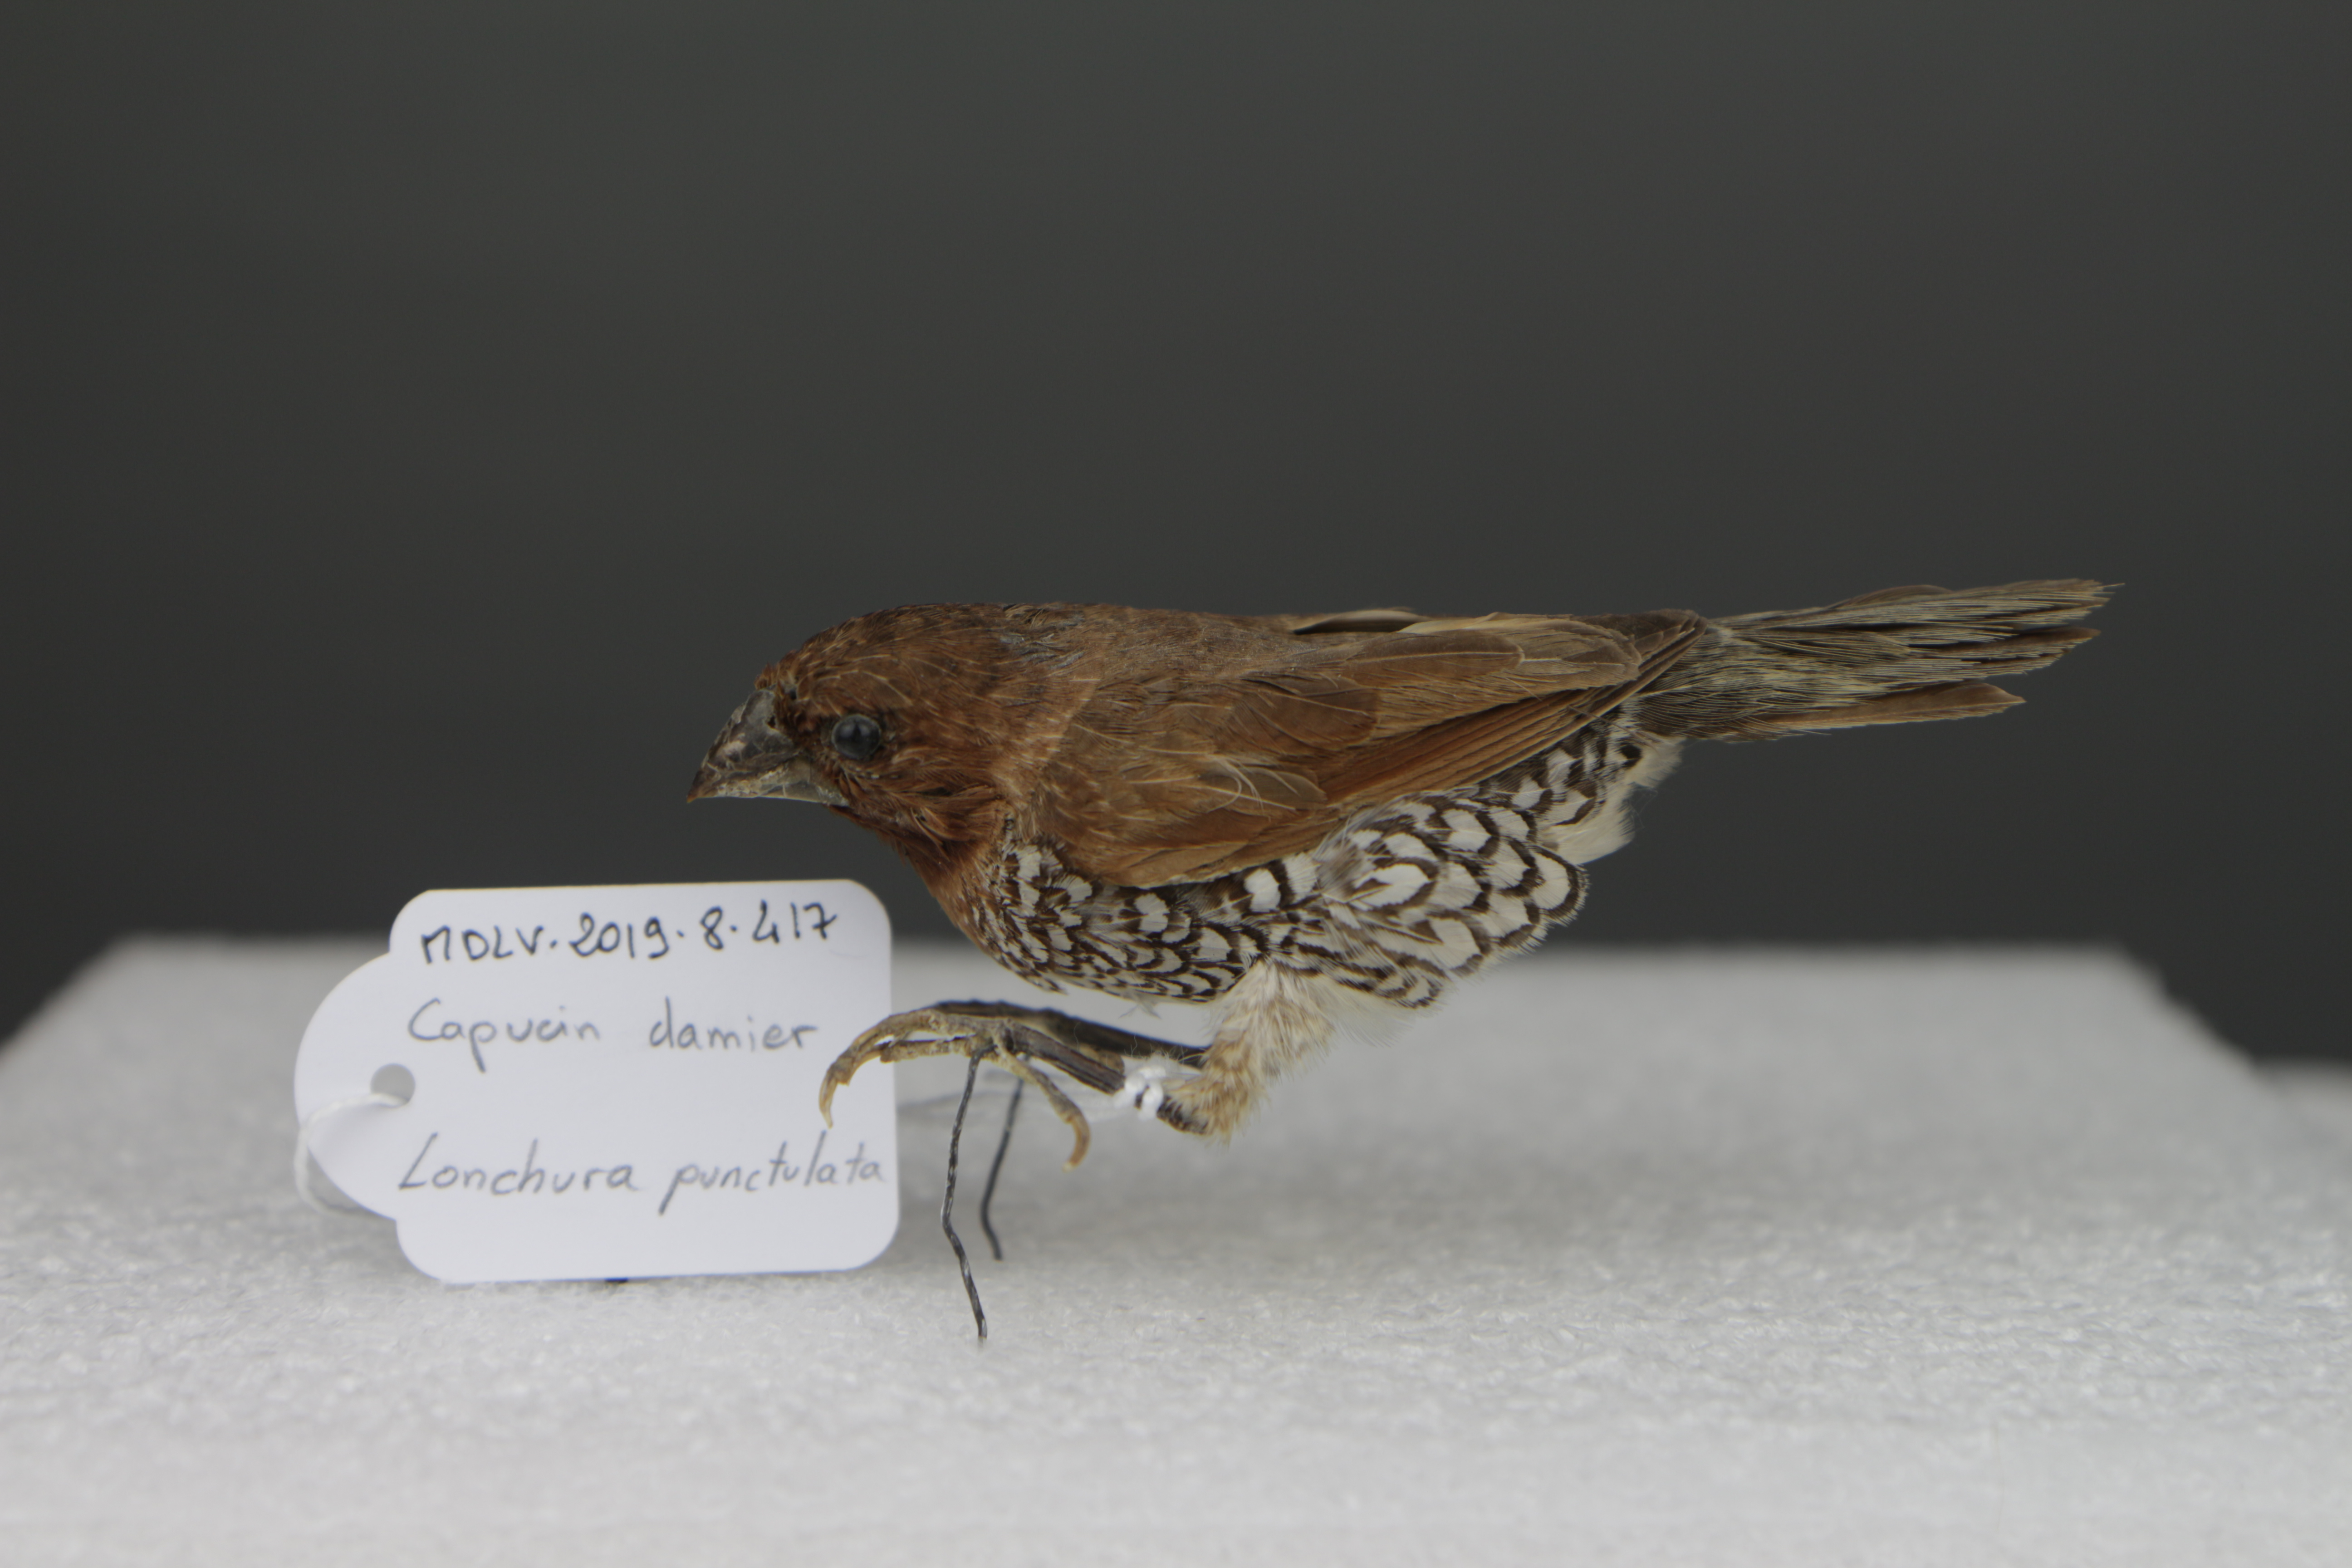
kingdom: Animalia
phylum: Chordata
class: Aves
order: Passeriformes
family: Estrildidae
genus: Lonchura
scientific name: Lonchura punctulata
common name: Scaly-breasted munia
